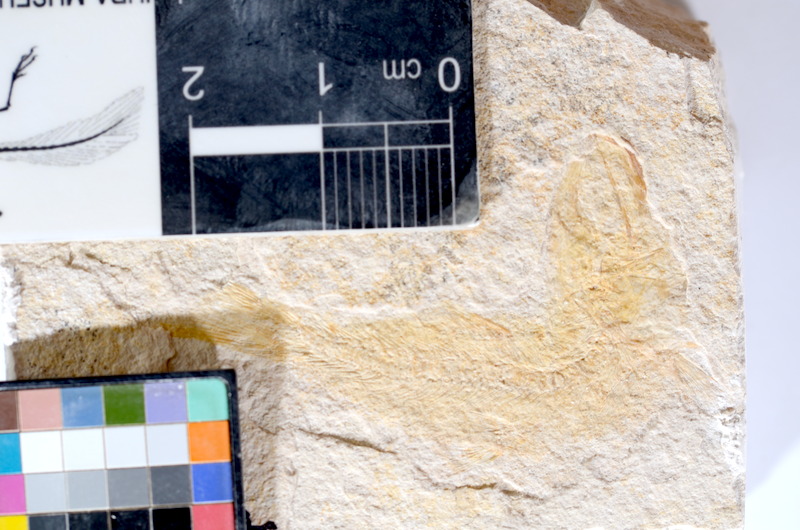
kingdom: Animalia
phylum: Chordata
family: Ascalaboidae
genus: Tharsis
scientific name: Tharsis dubius
